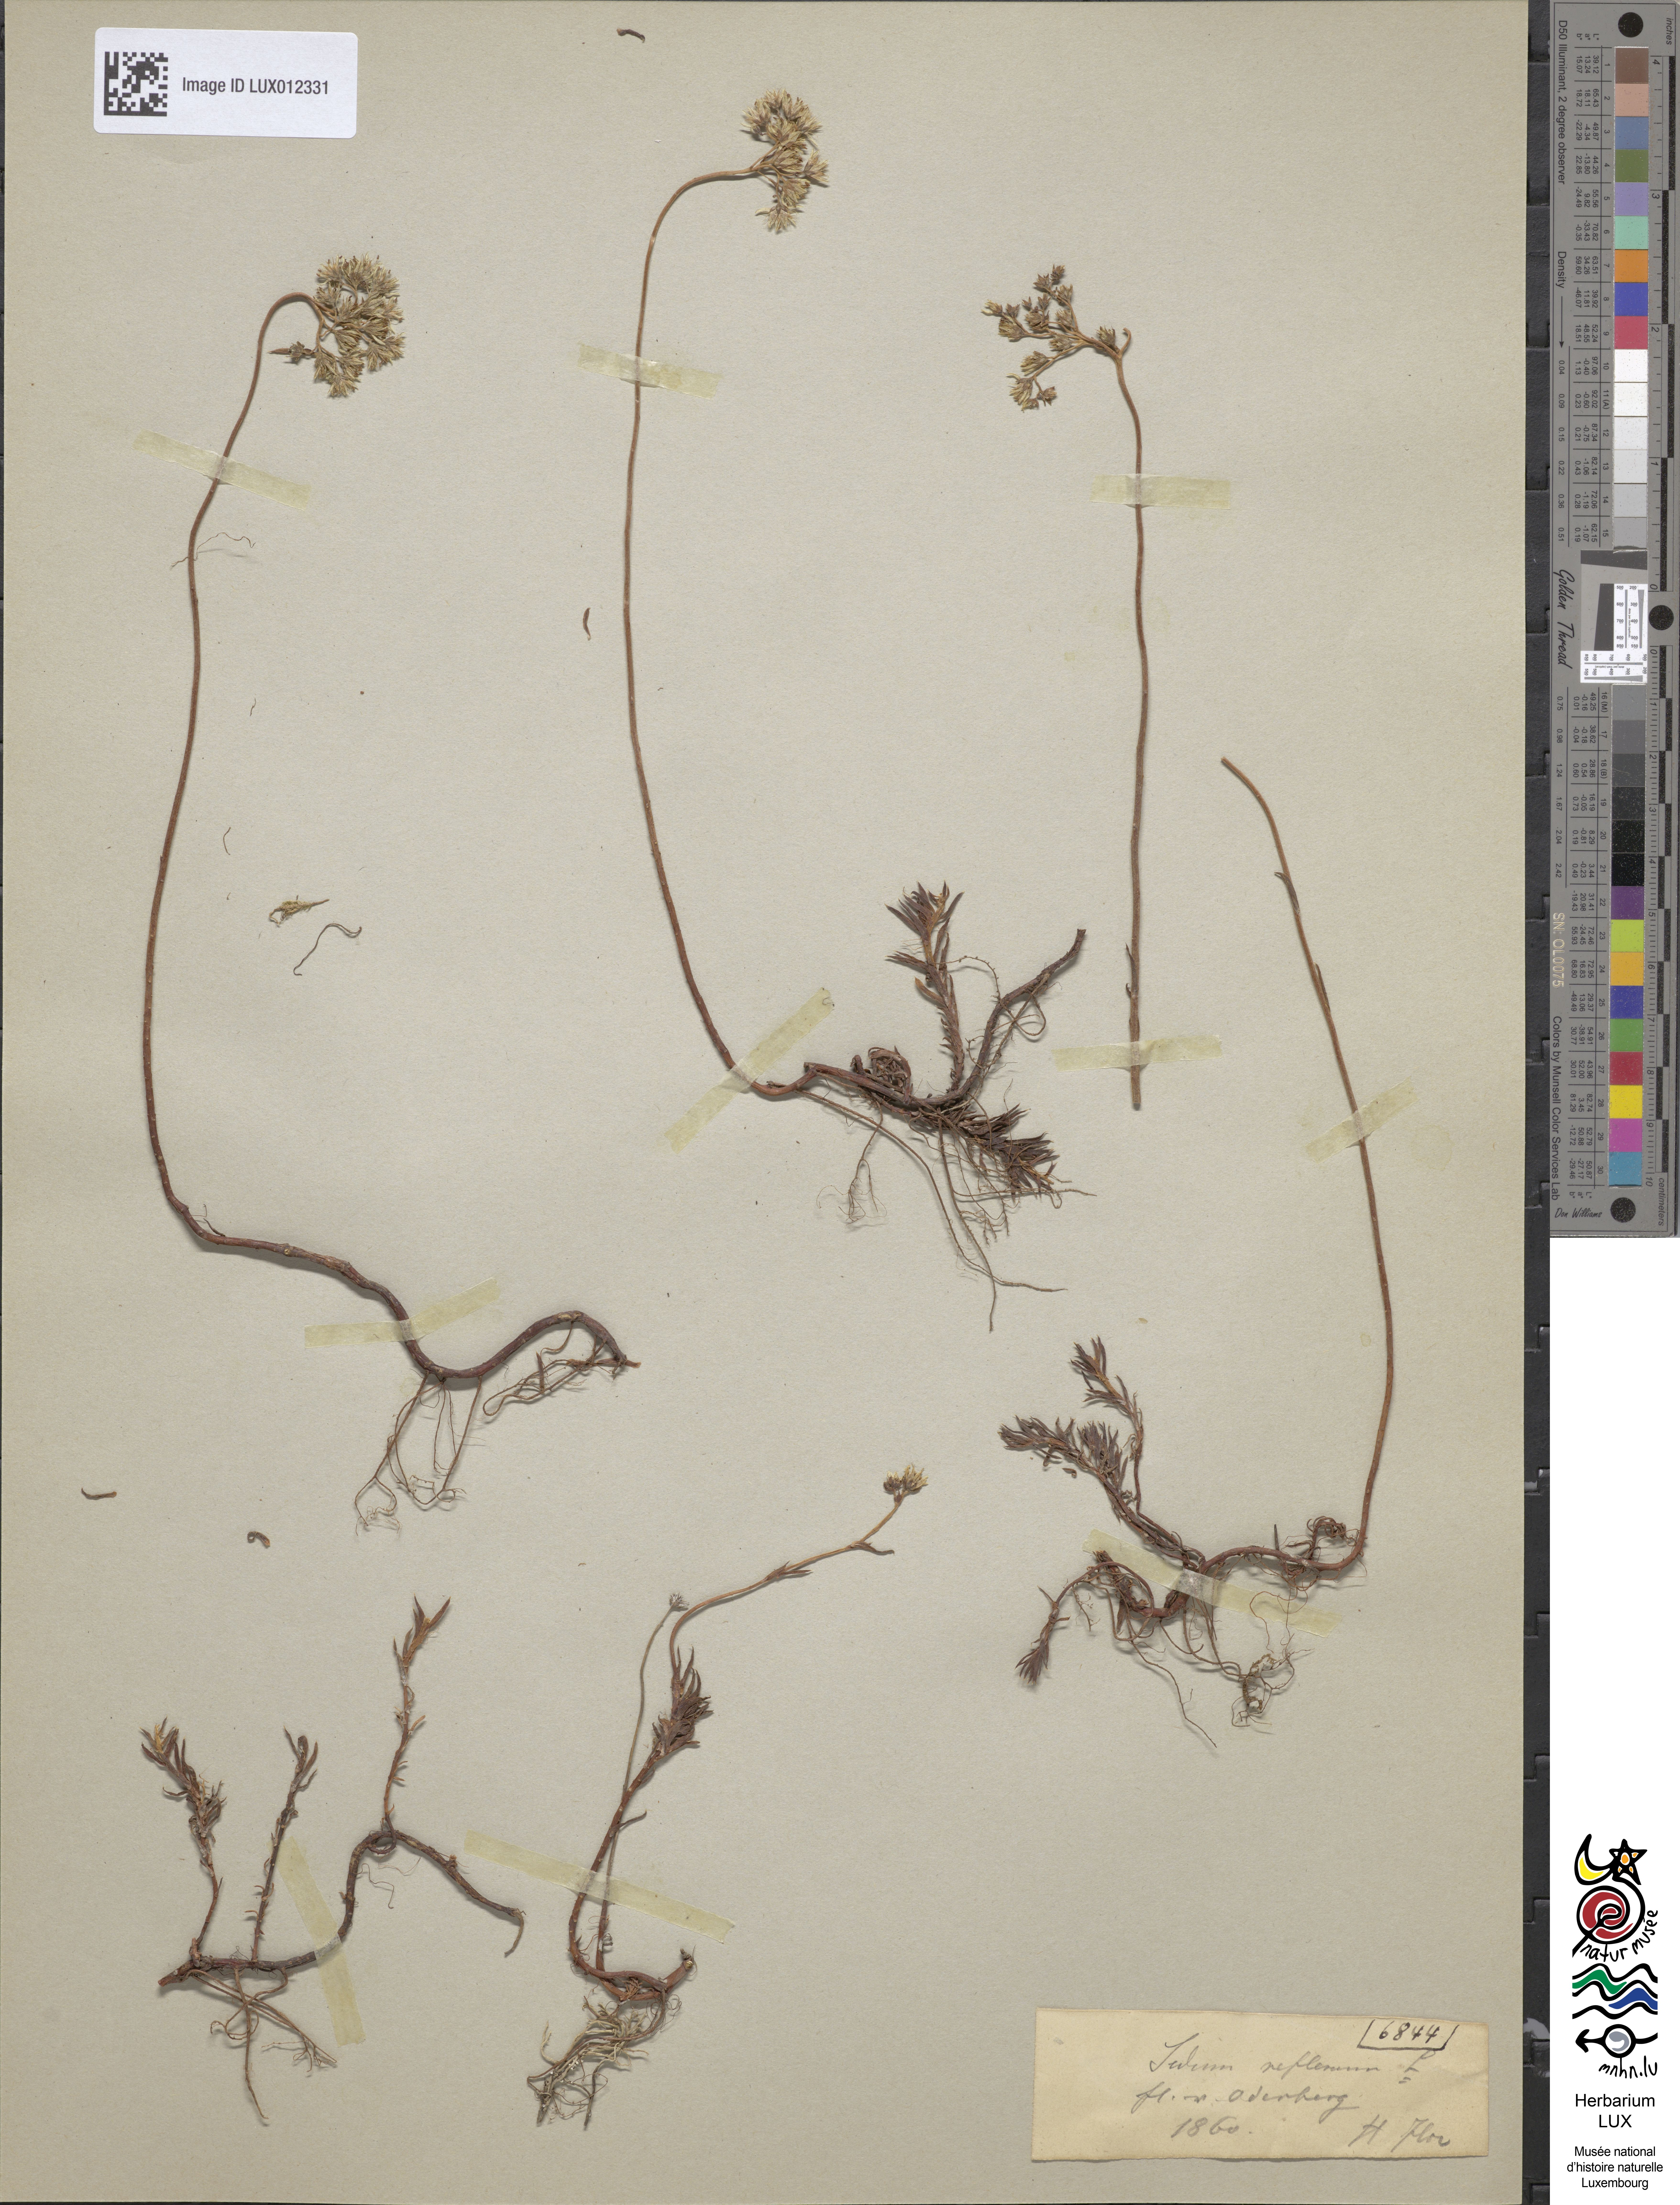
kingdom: Plantae
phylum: Tracheophyta
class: Magnoliopsida
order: Saxifragales
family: Crassulaceae
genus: Petrosedum
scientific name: Petrosedum rupestre
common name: Jenny's stonecrop
